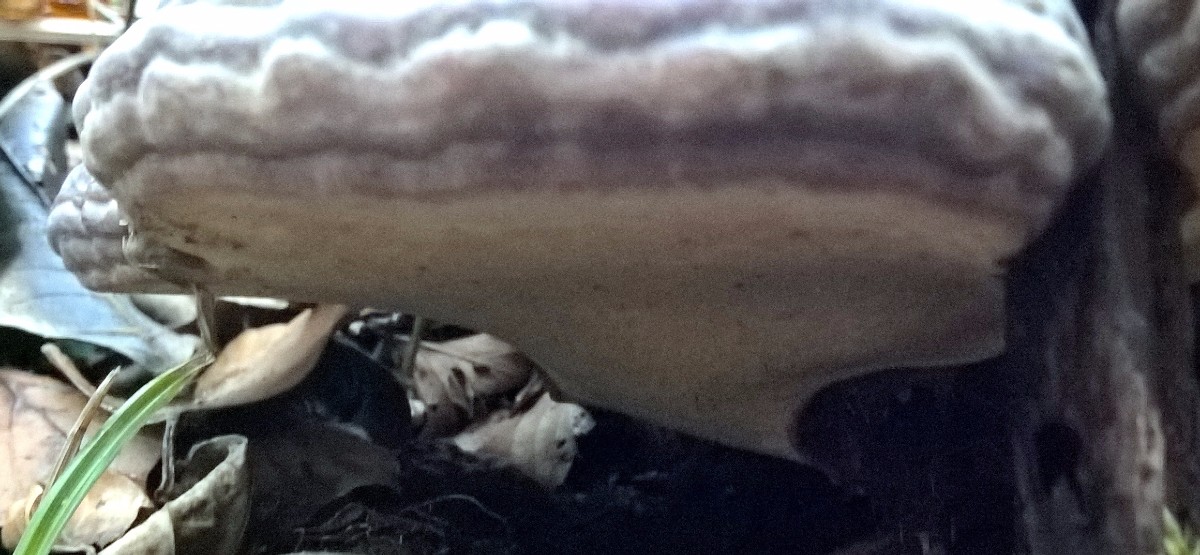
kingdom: Fungi
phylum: Basidiomycota
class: Agaricomycetes
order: Polyporales
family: Polyporaceae
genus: Ganoderma
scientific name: Ganoderma pfeifferi
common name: kobberrød lakporesvamp
